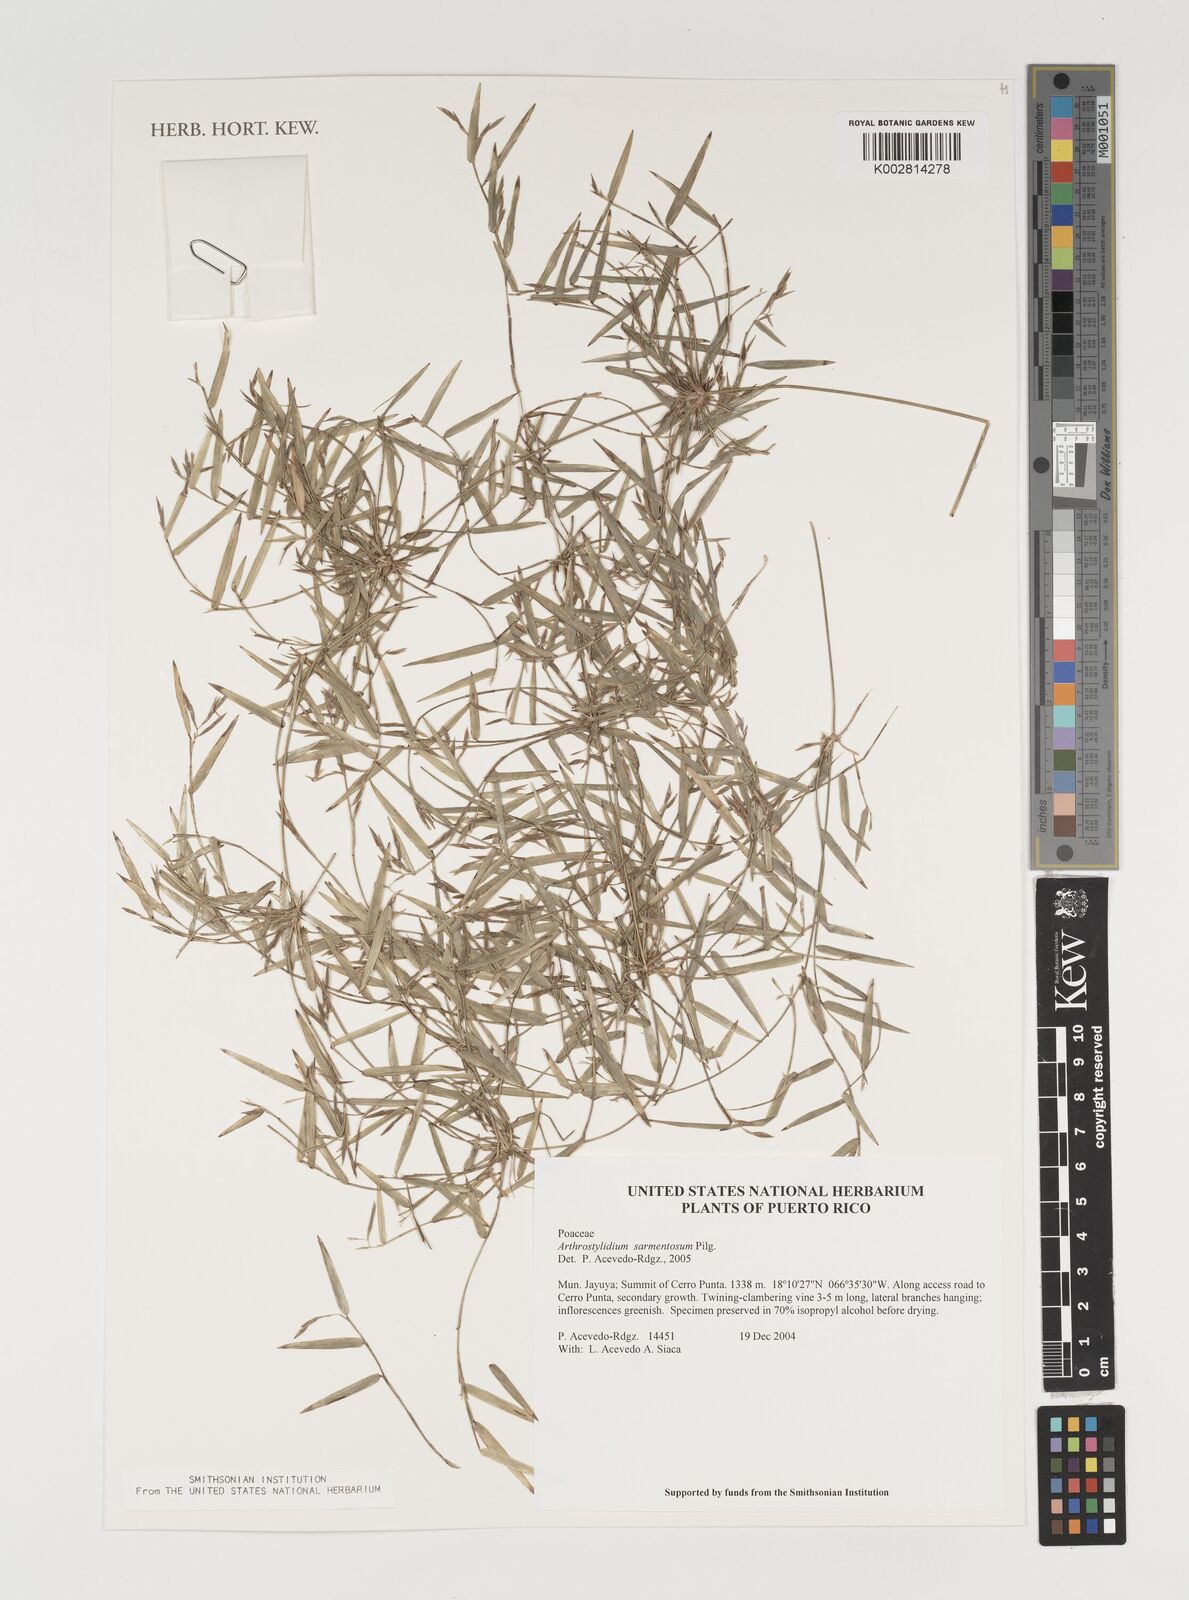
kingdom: Plantae
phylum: Tracheophyta
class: Liliopsida
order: Poales
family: Poaceae
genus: Arthrostylidium
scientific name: Arthrostylidium sarmentosum
